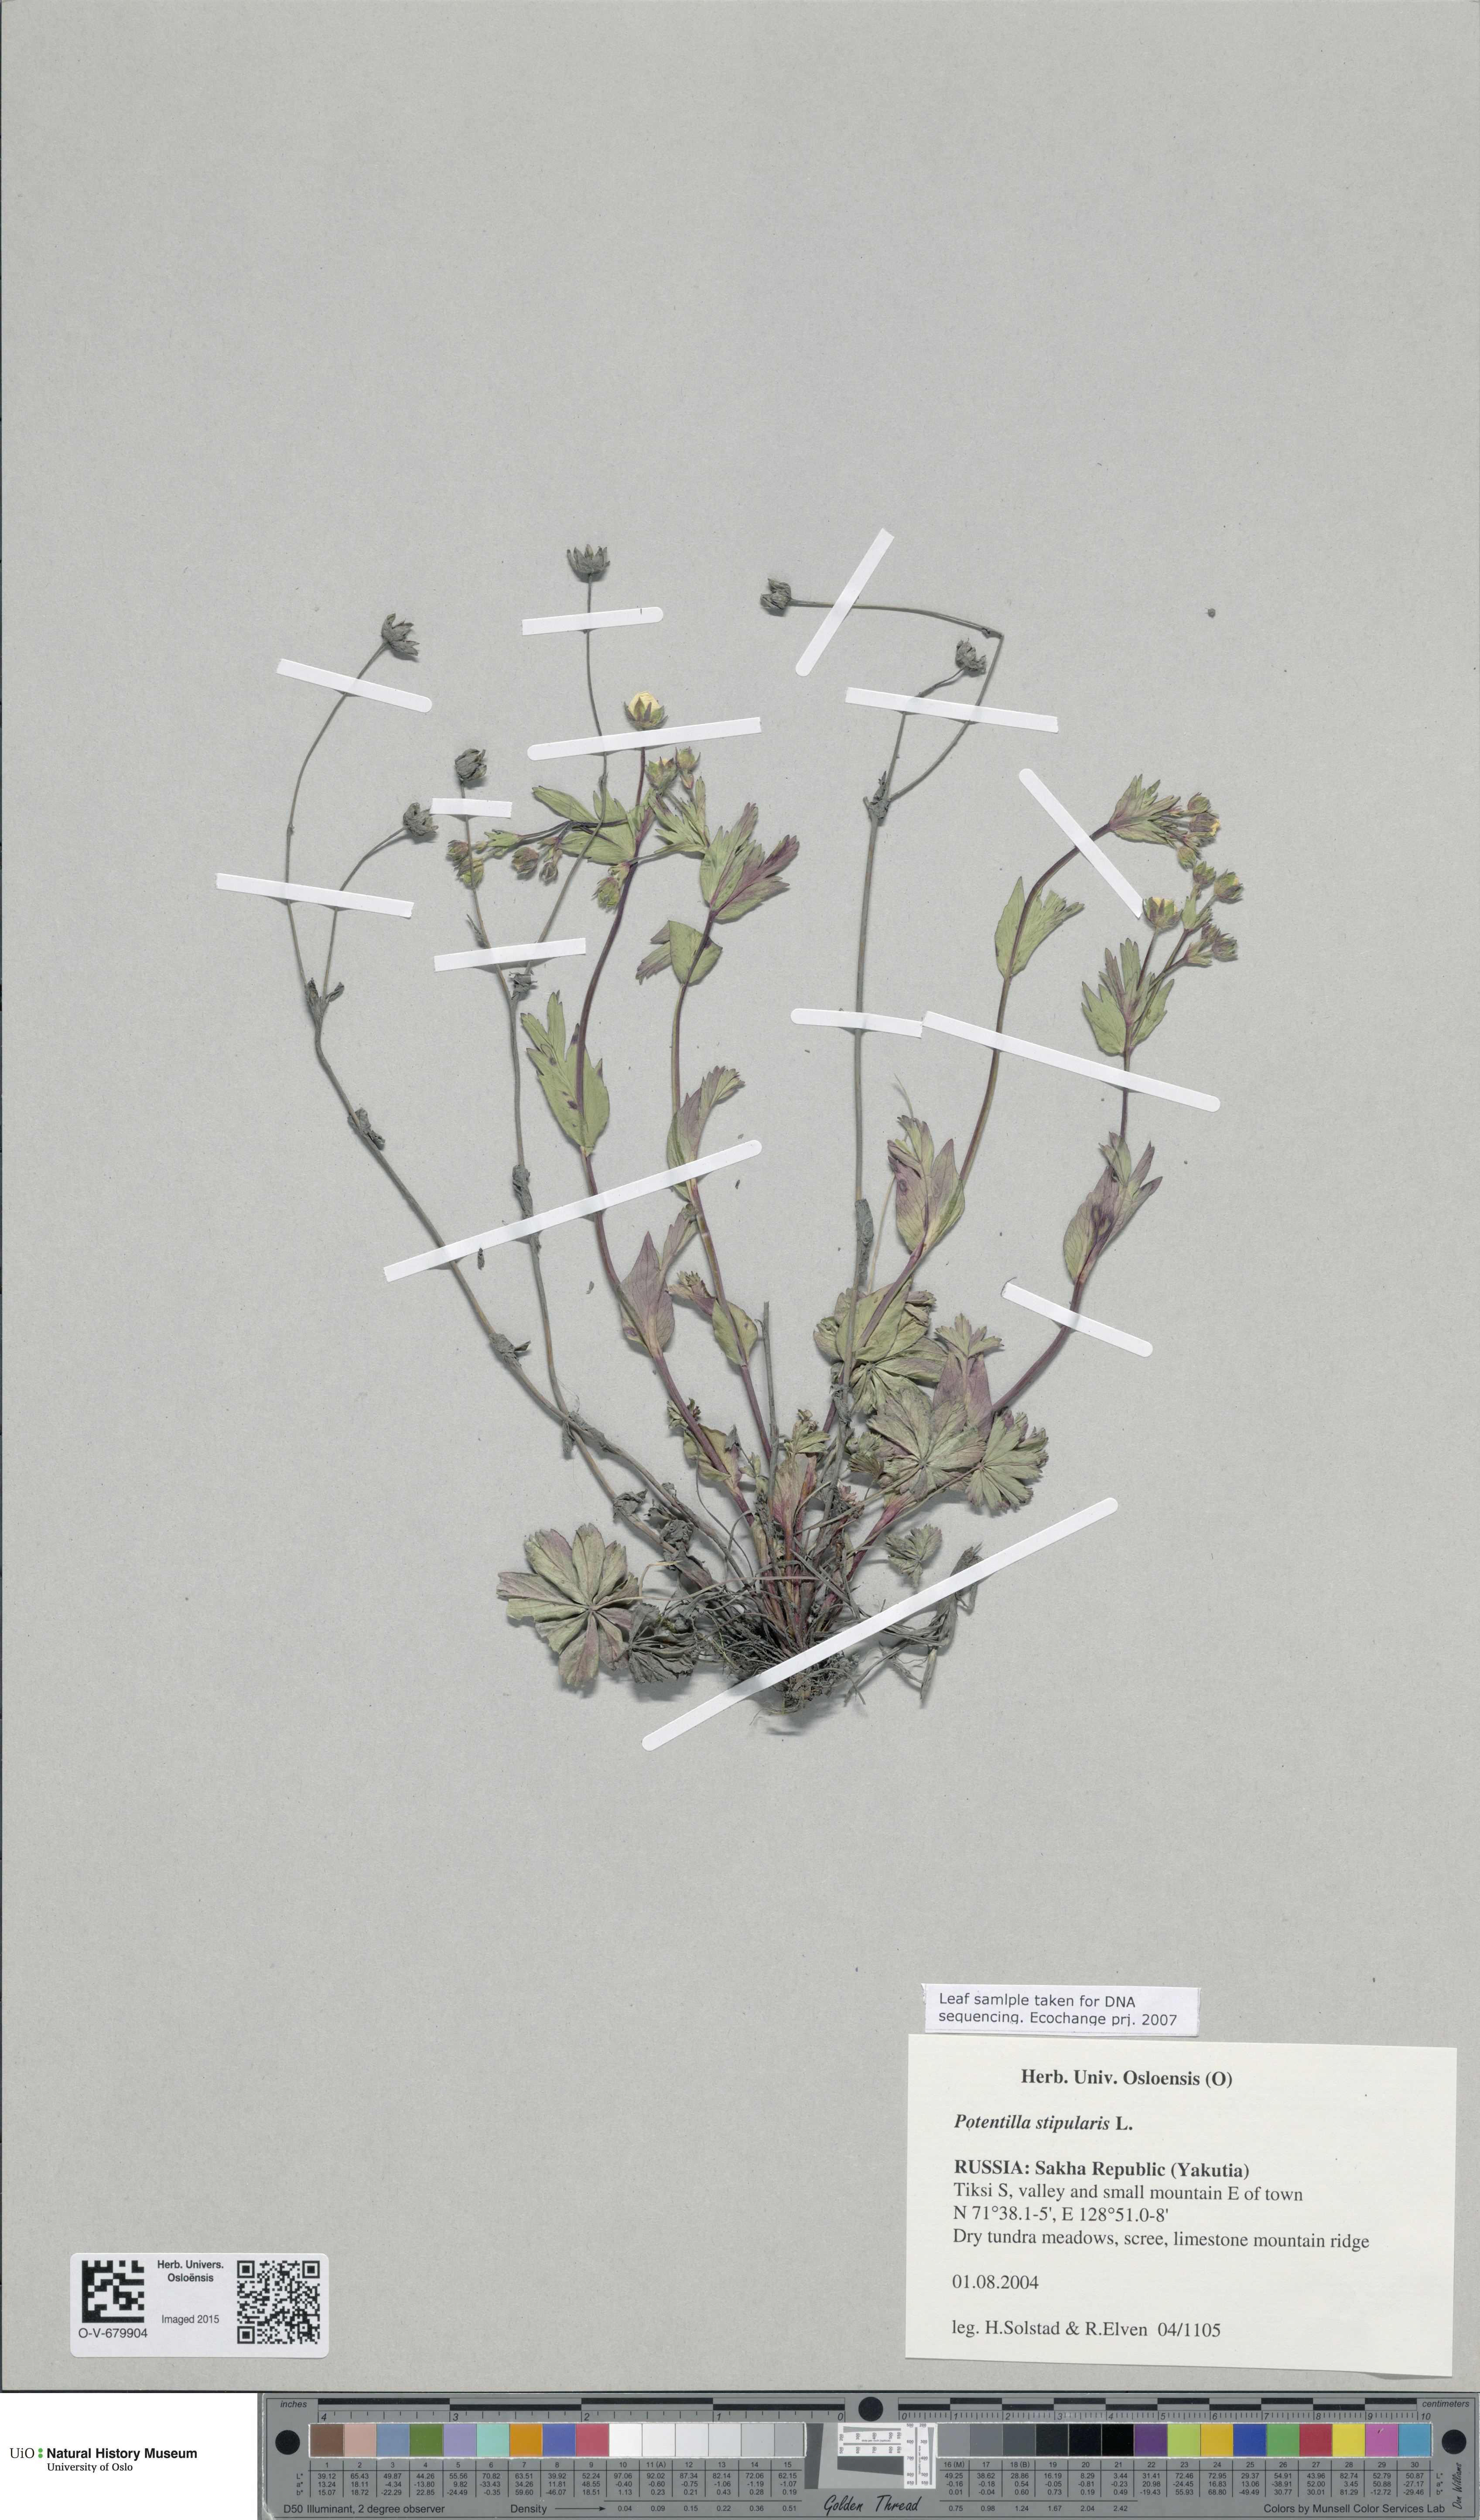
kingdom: Plantae
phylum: Tracheophyta
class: Magnoliopsida
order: Rosales
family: Rosaceae
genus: Potentilla
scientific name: Potentilla stipularis
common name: Circumpolar cinquefoil
